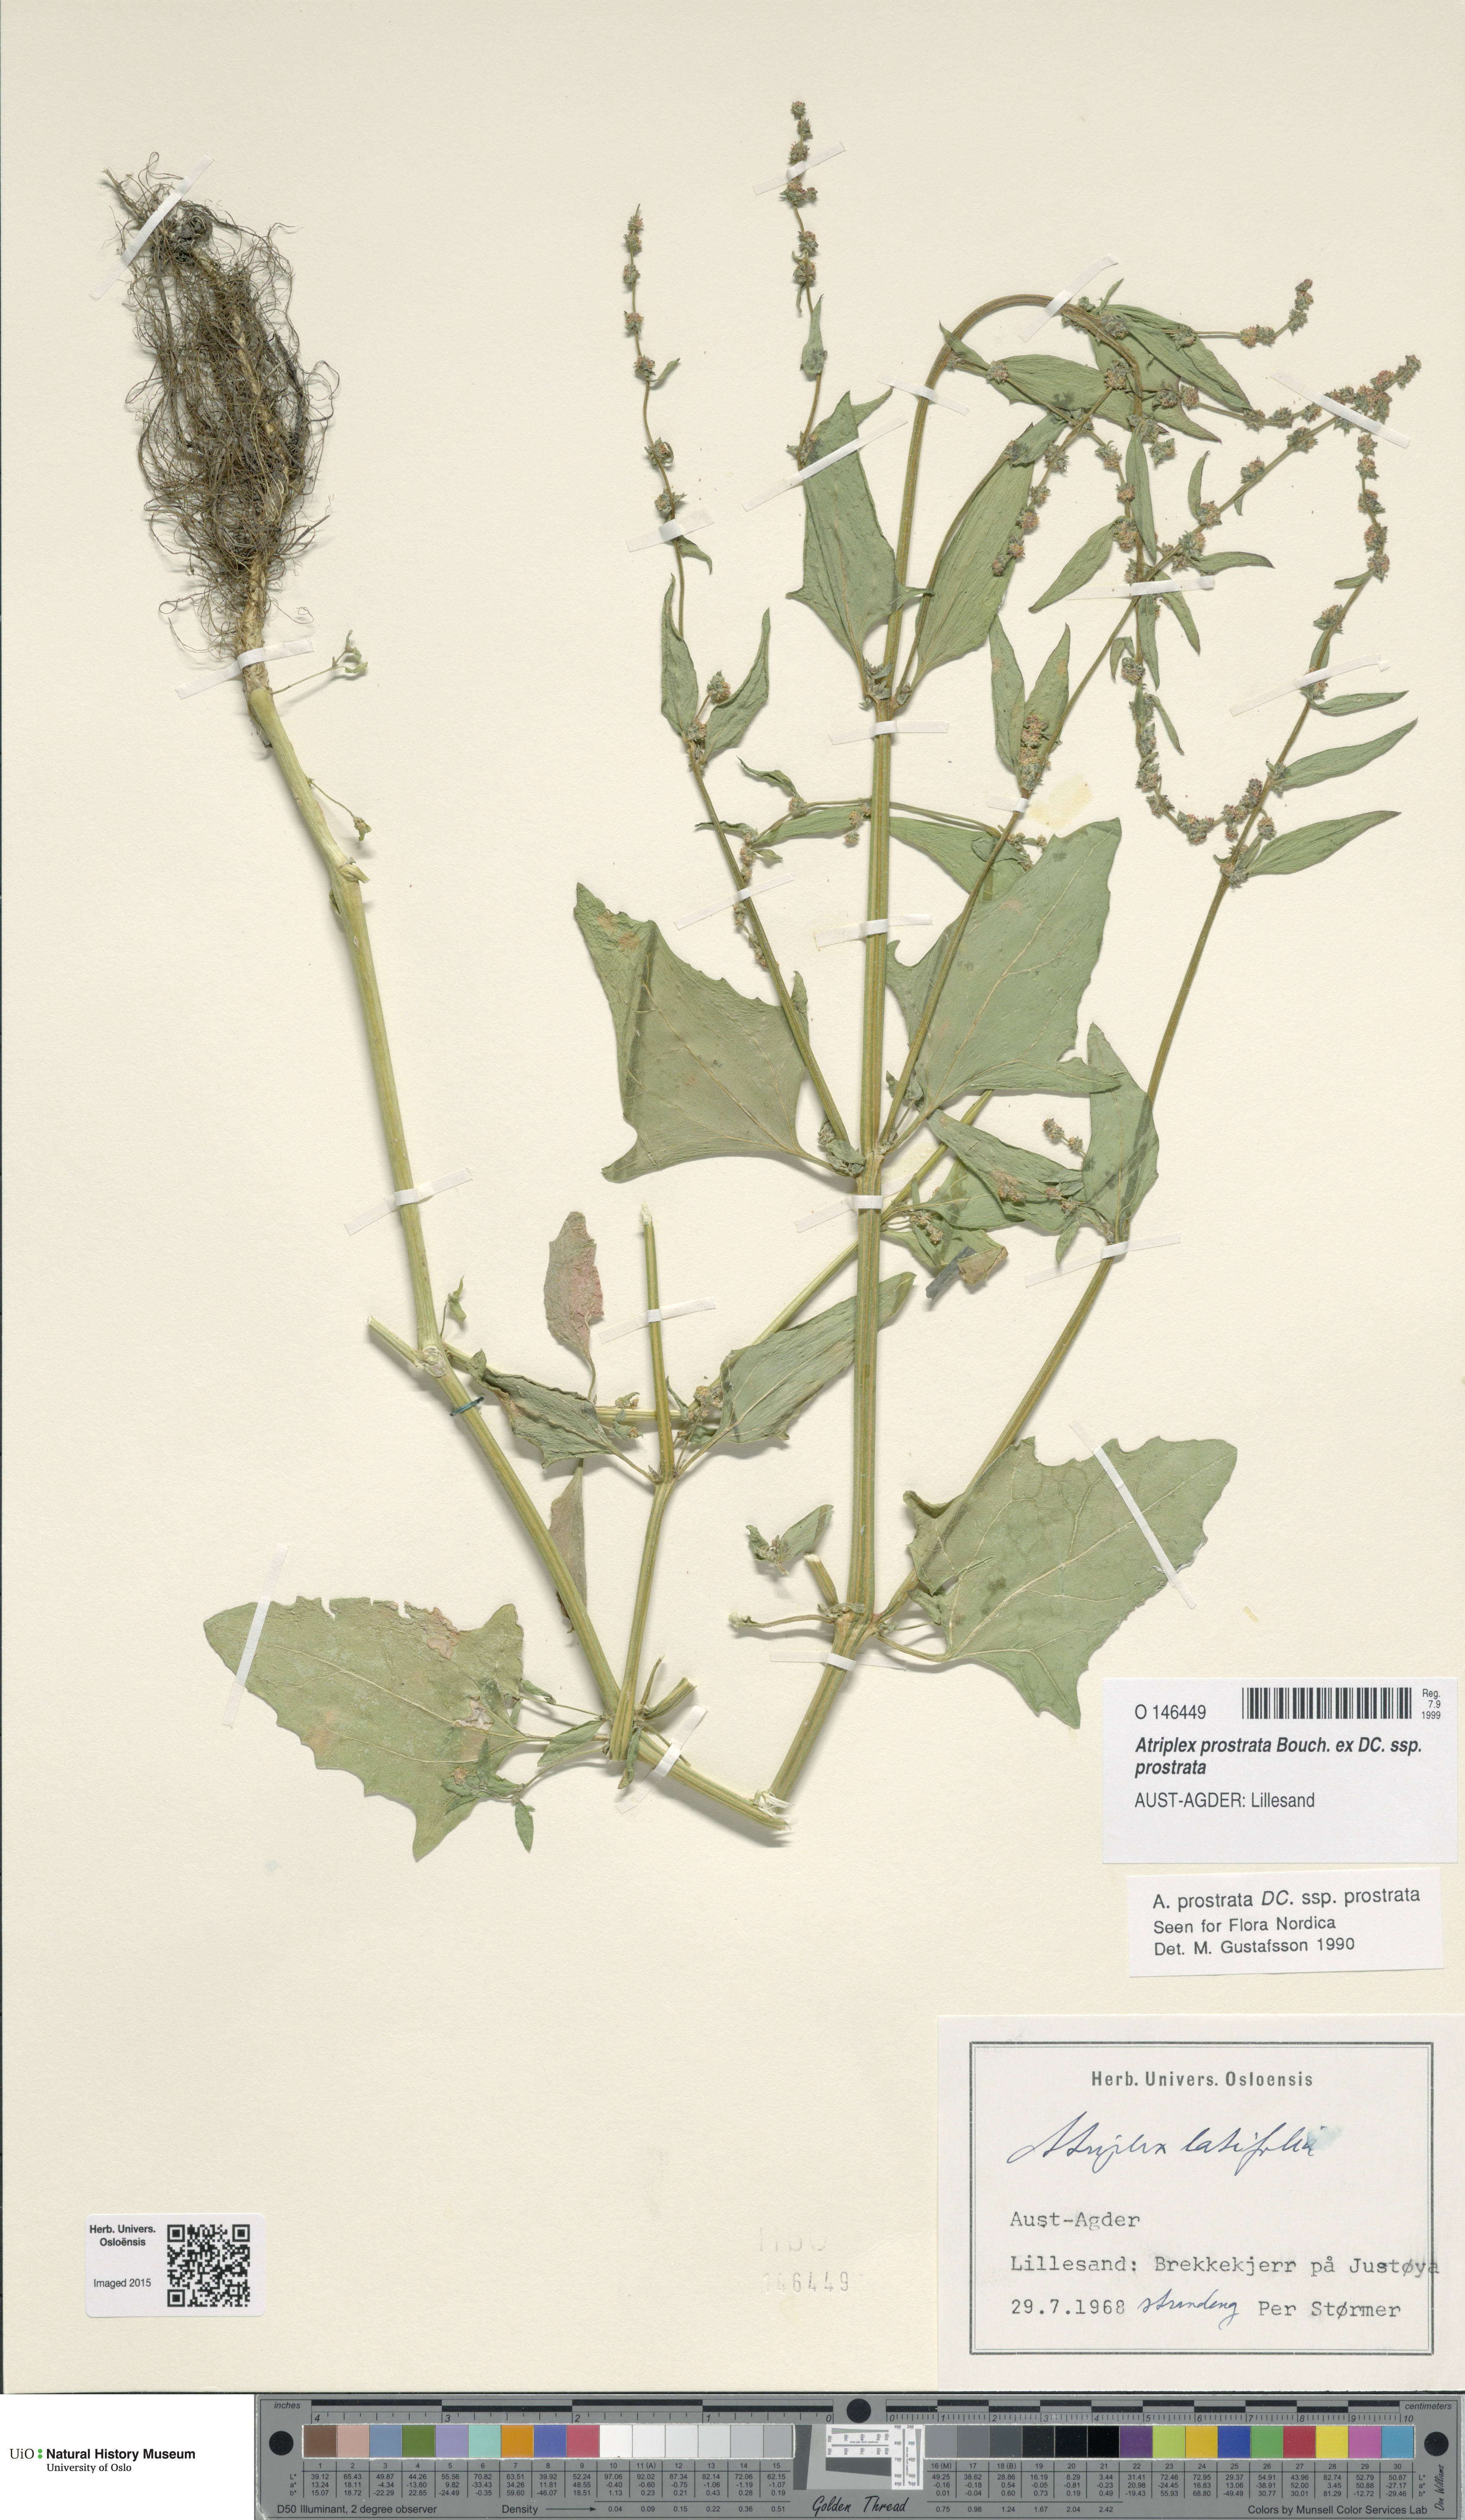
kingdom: Plantae
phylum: Tracheophyta
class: Magnoliopsida
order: Caryophyllales
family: Amaranthaceae
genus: Atriplex
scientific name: Atriplex prostrata
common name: Spear-leaved orache
